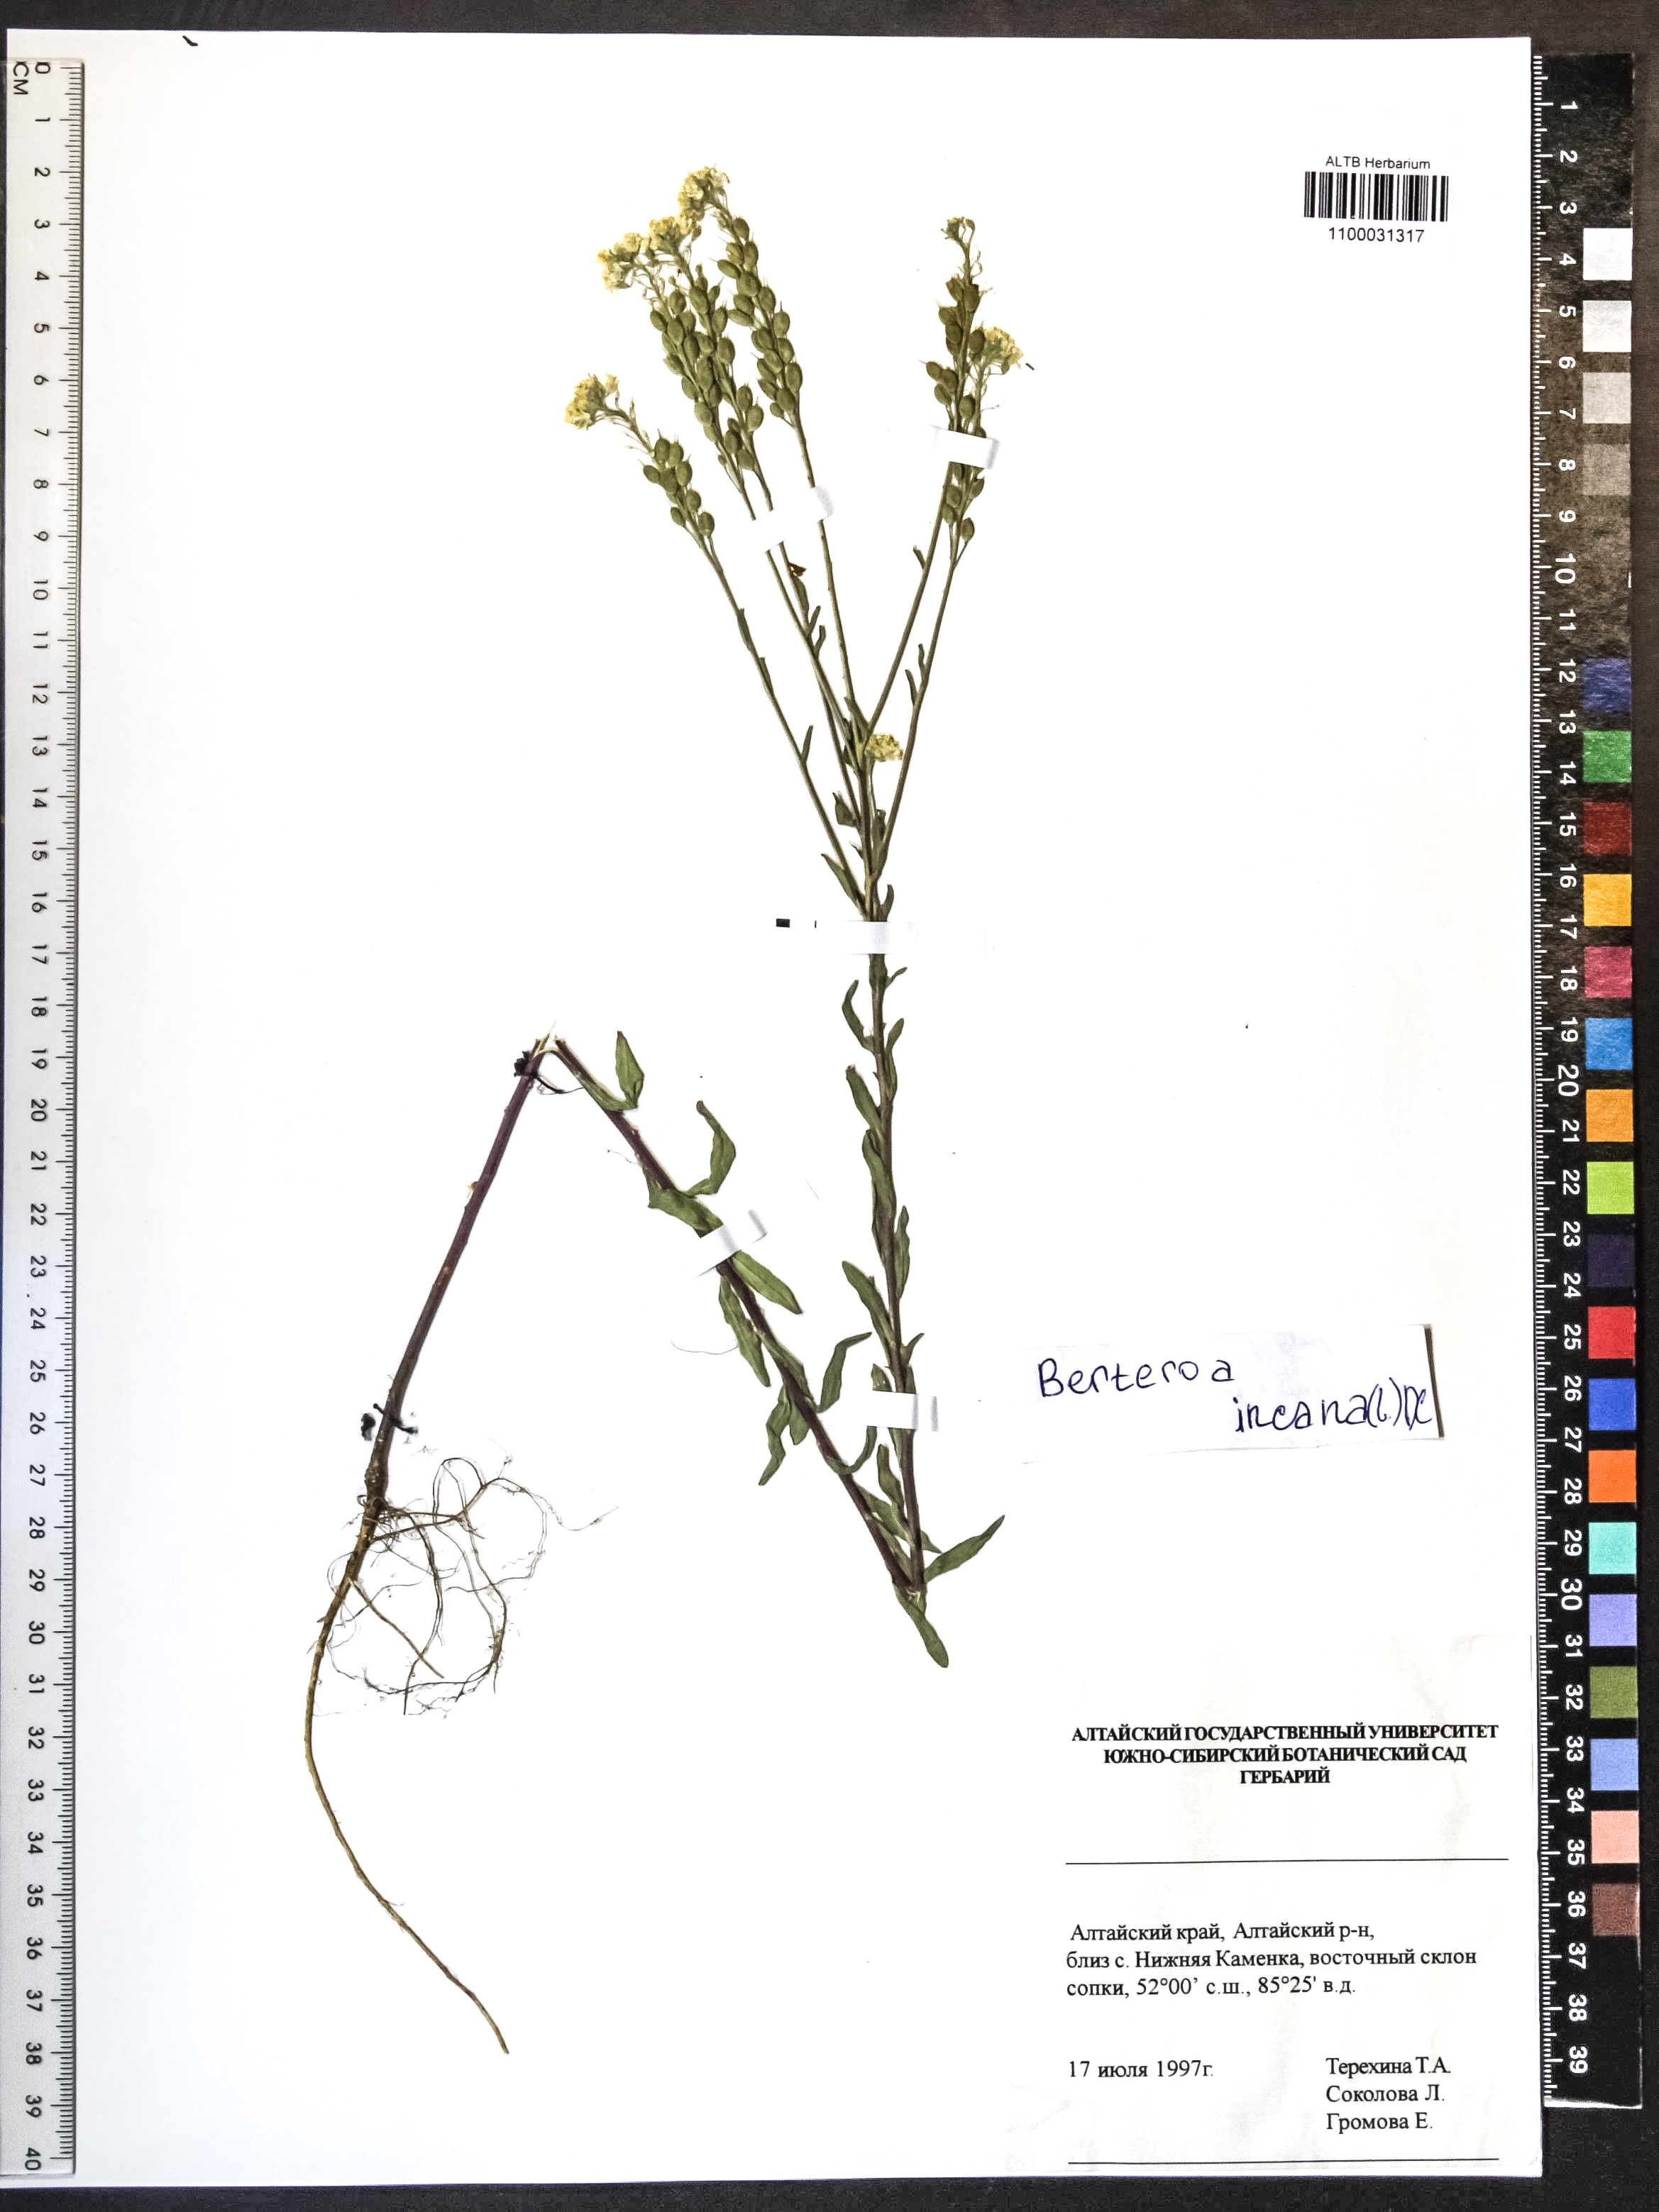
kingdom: Plantae
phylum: Tracheophyta
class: Magnoliopsida
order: Brassicales
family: Brassicaceae
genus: Berteroa
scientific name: Berteroa incana
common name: Hoary alison
